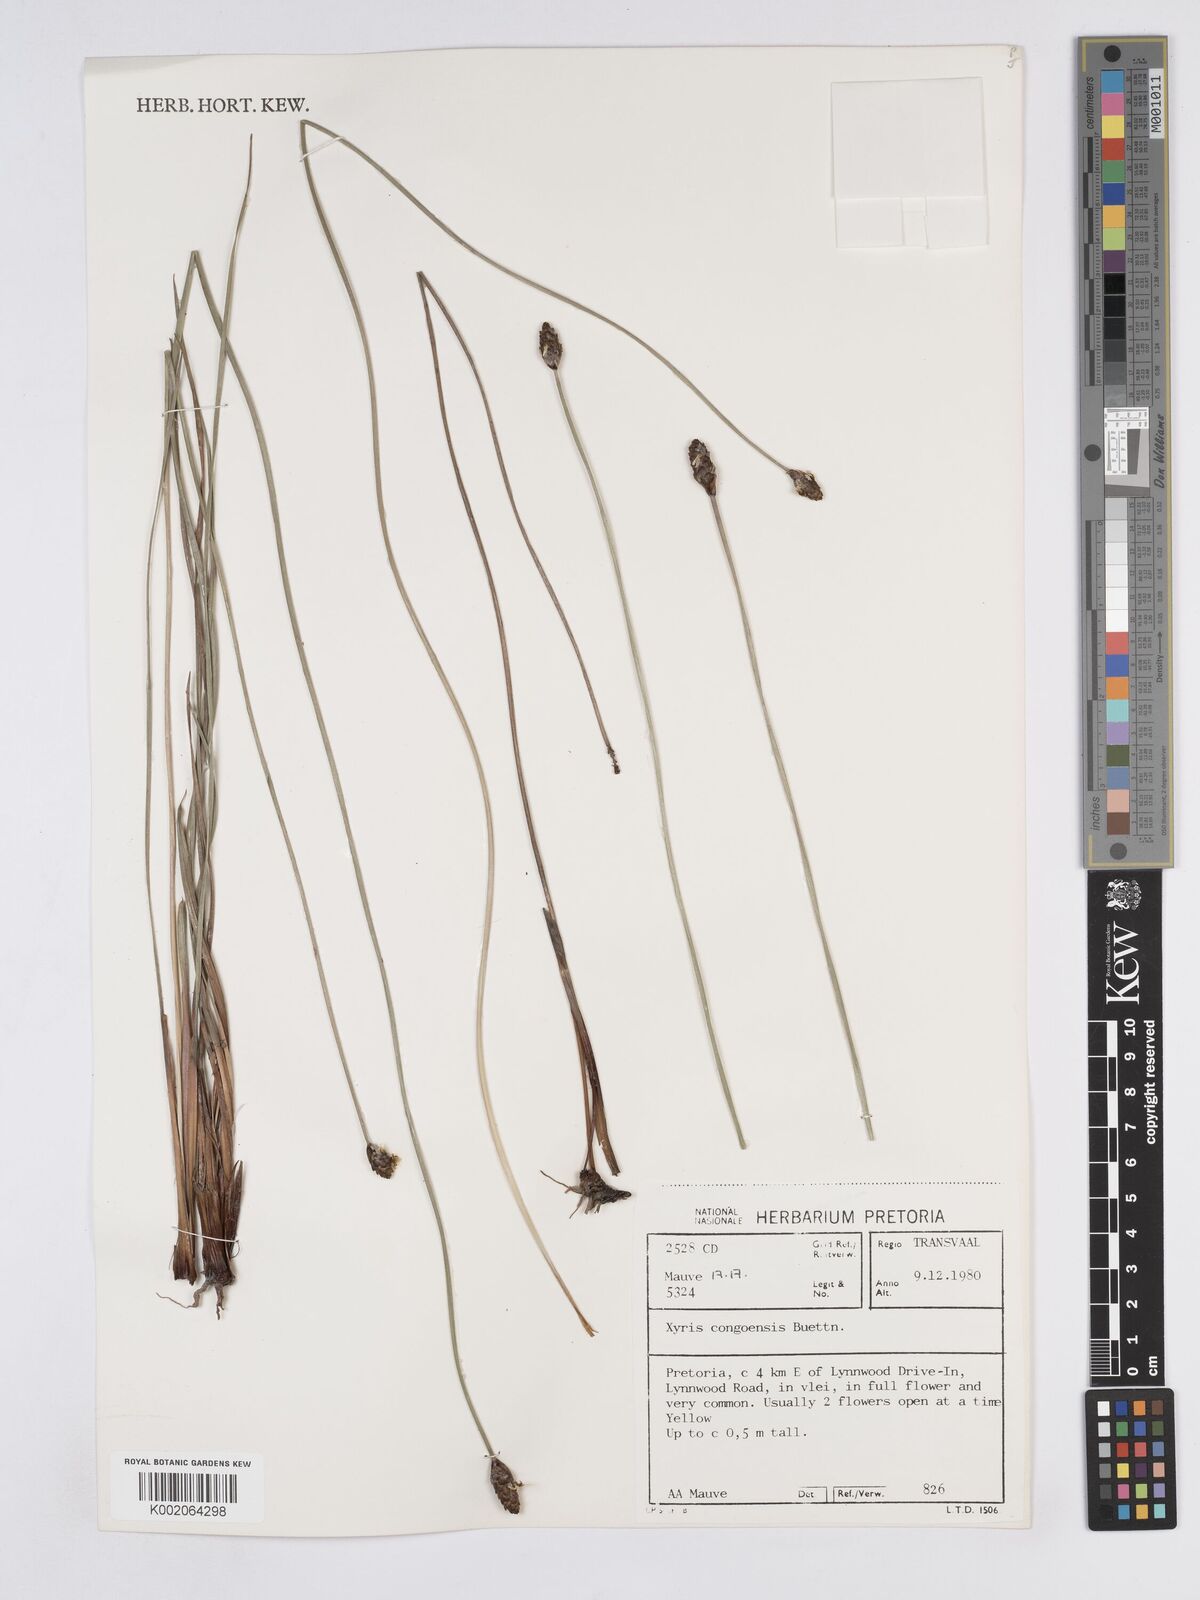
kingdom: Plantae
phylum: Tracheophyta
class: Liliopsida
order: Poales
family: Xyridaceae
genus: Xyris
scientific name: Xyris congensis
